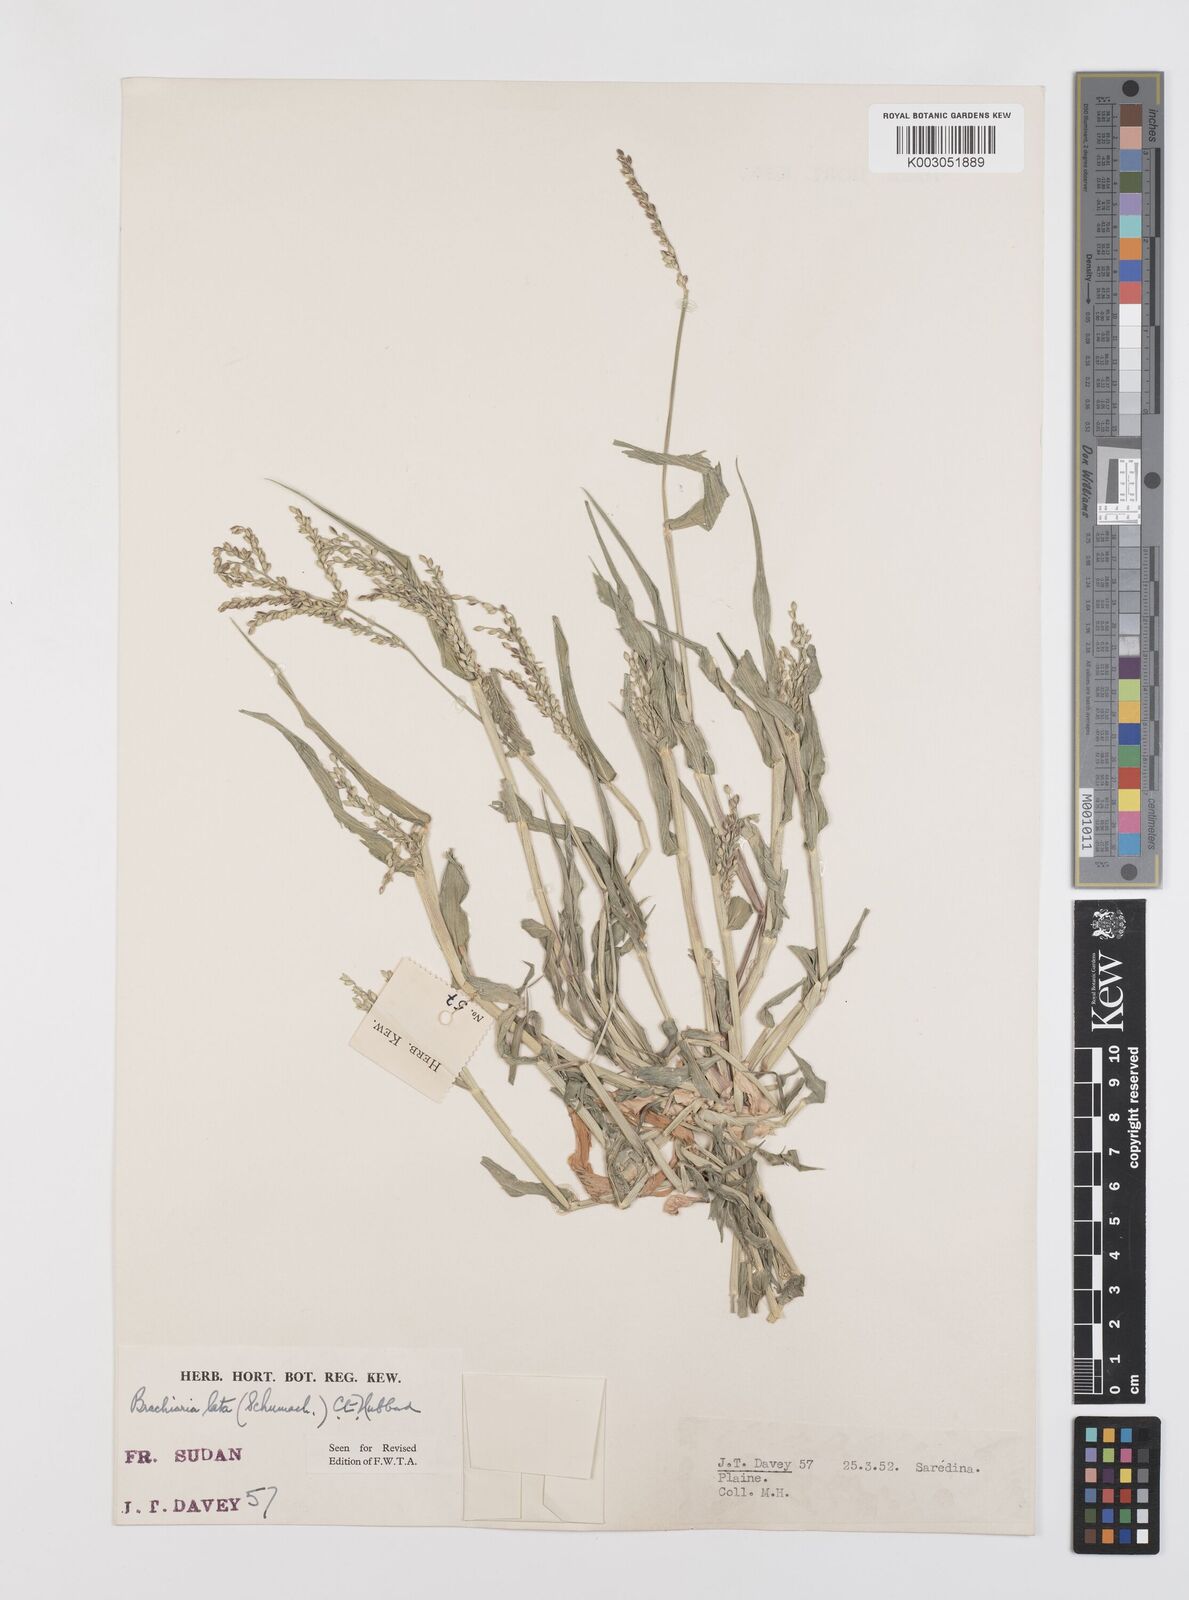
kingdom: Plantae
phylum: Tracheophyta
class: Liliopsida
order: Poales
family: Poaceae
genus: Urochloa
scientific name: Urochloa lata
